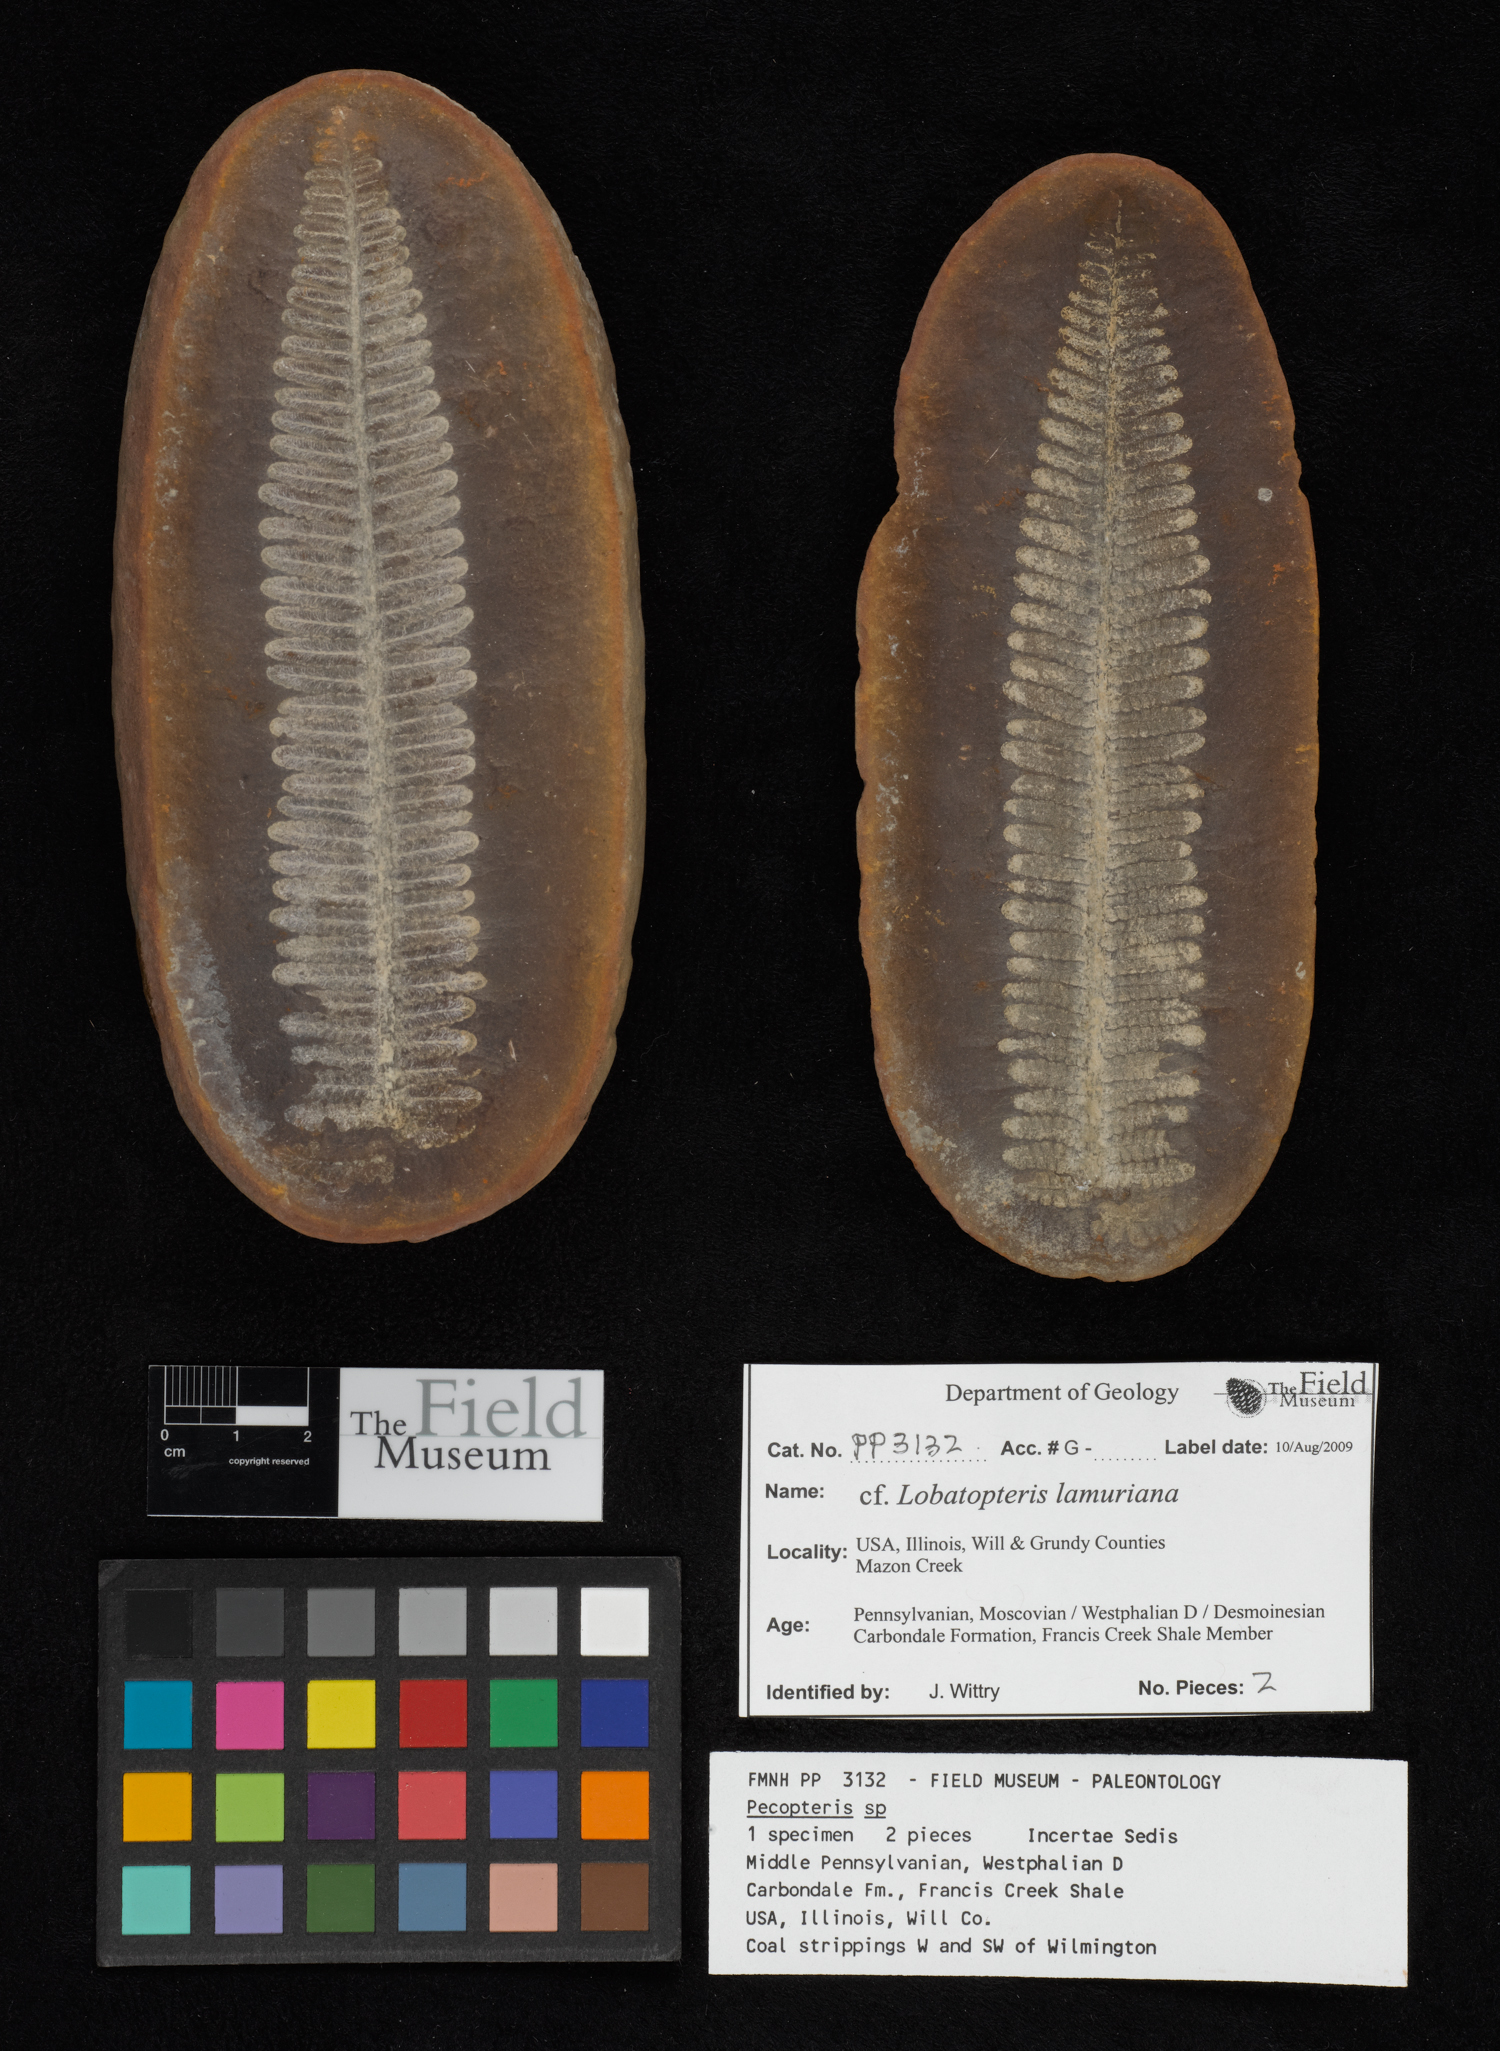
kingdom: Plantae
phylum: Tracheophyta
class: Polypodiopsida
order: Marattiales
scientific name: Marattiales
